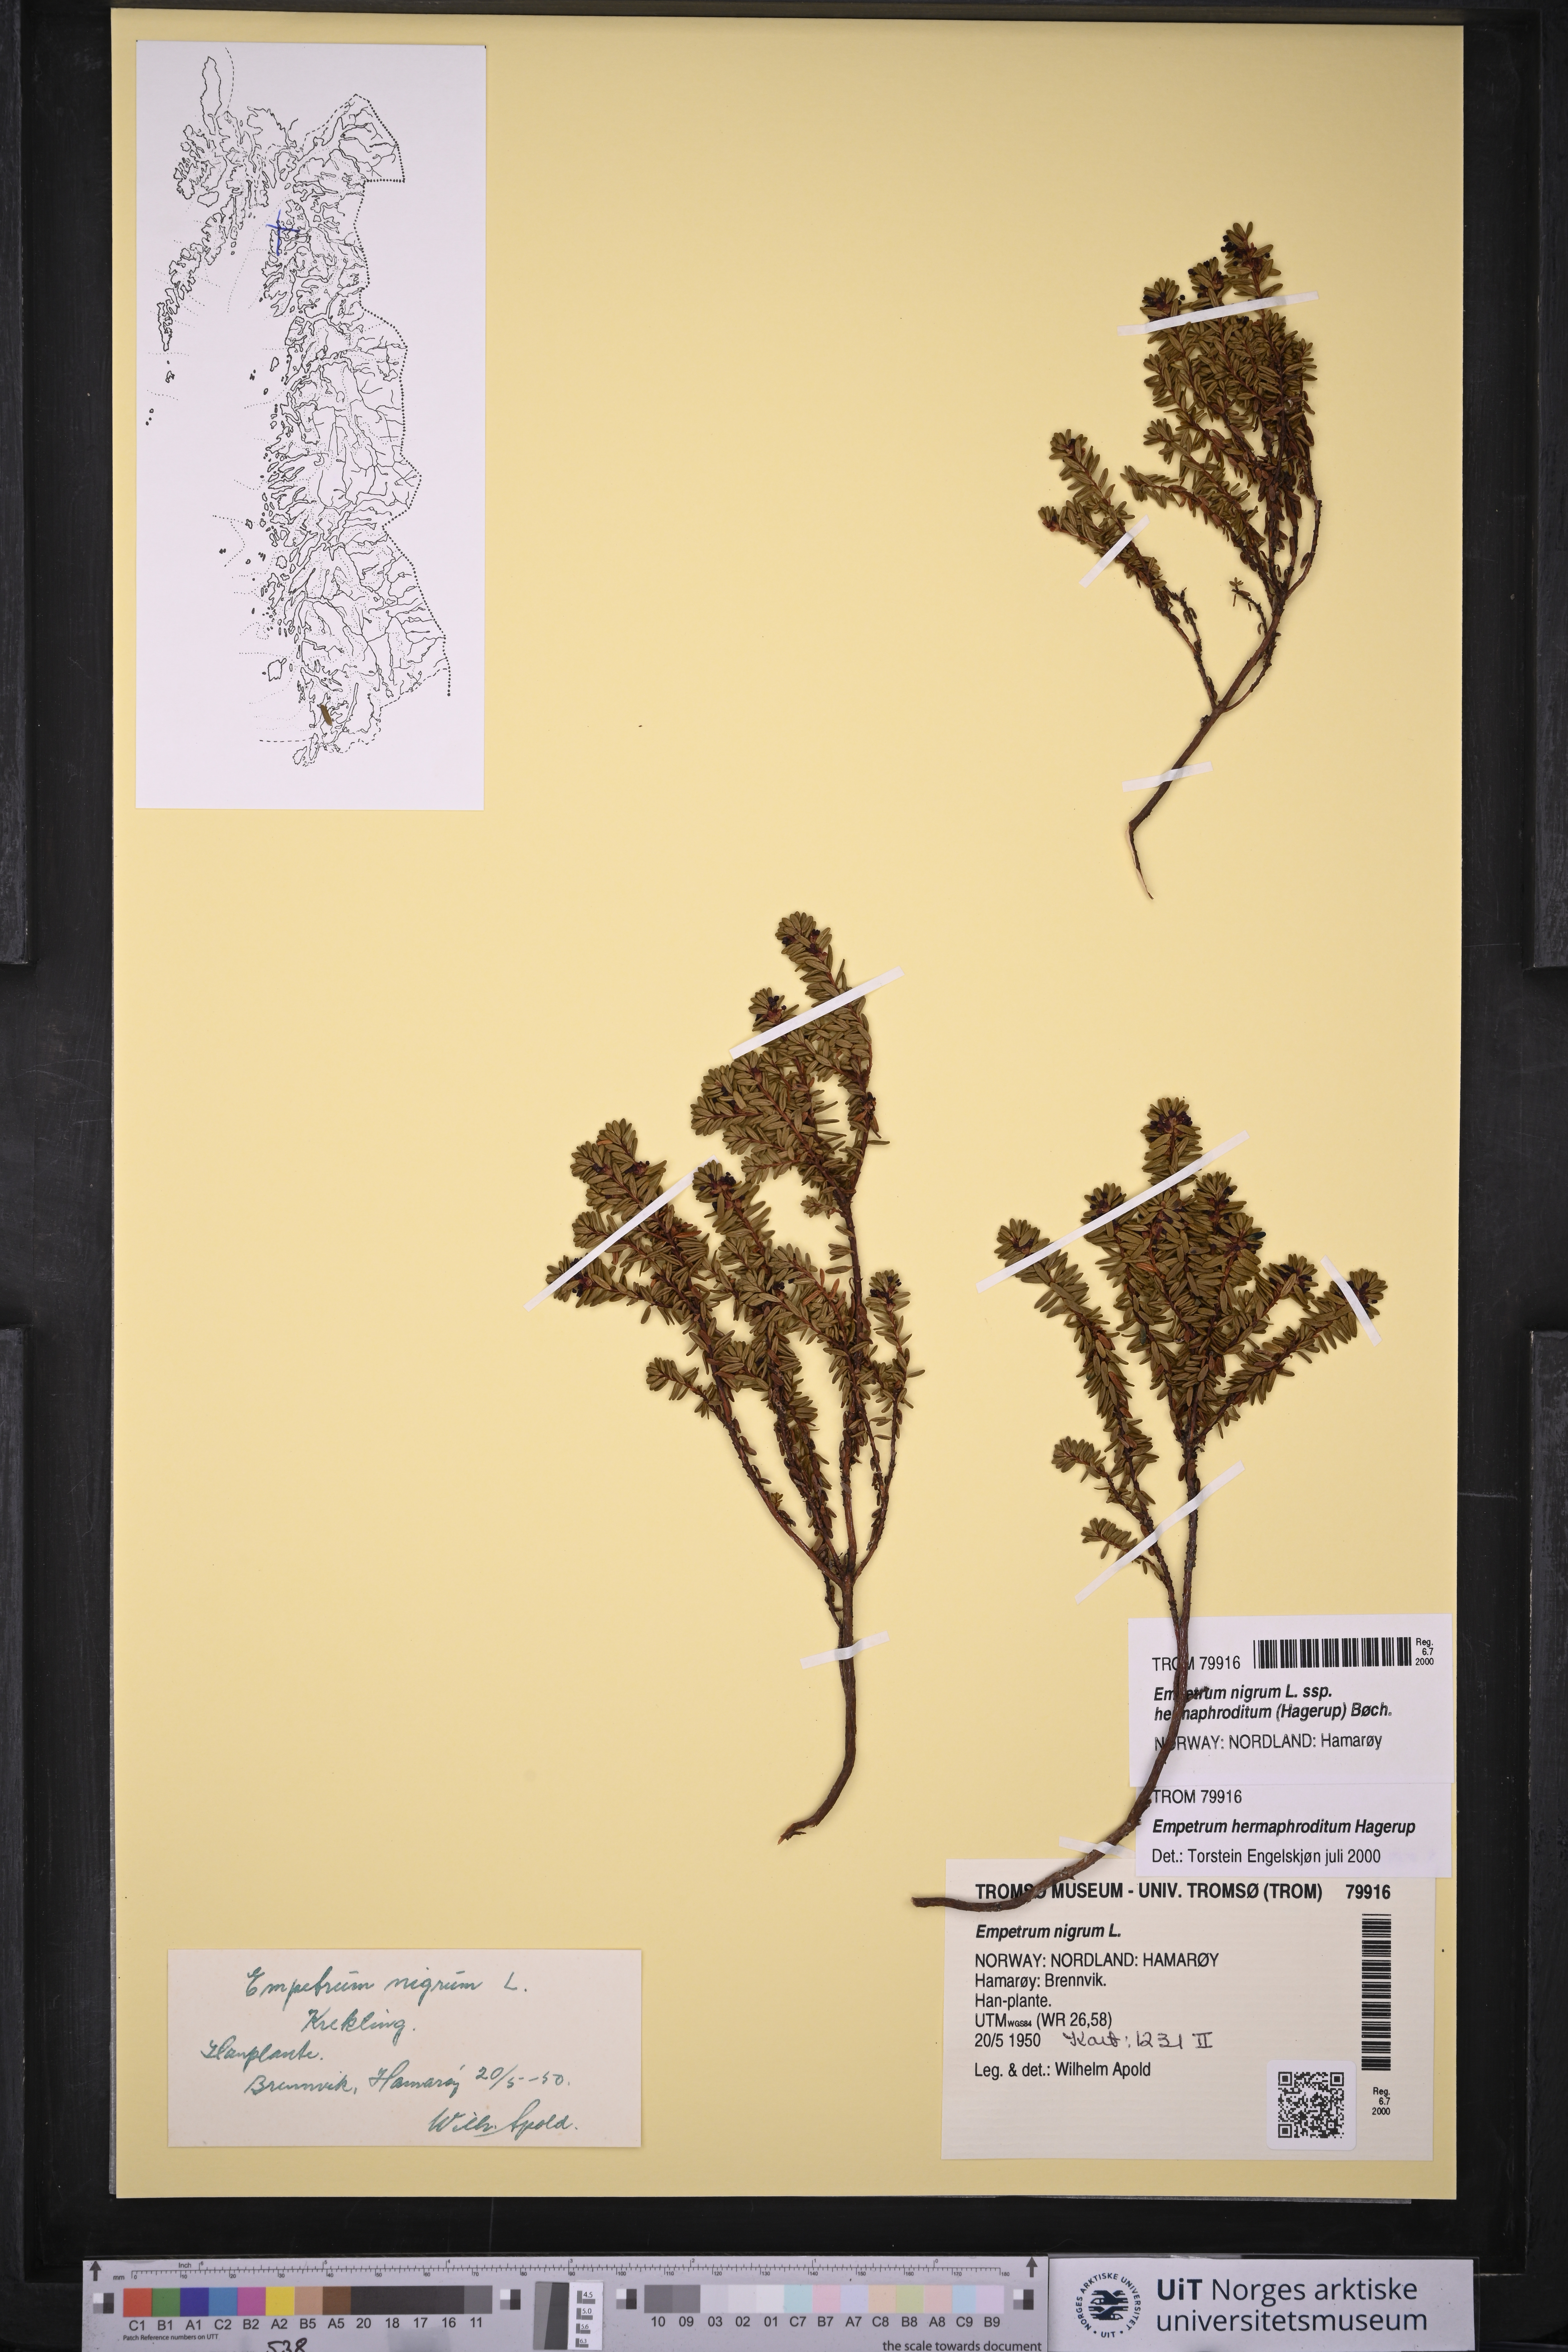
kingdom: Plantae
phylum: Tracheophyta
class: Magnoliopsida
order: Ericales
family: Ericaceae
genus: Empetrum
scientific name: Empetrum hermaphroditum
